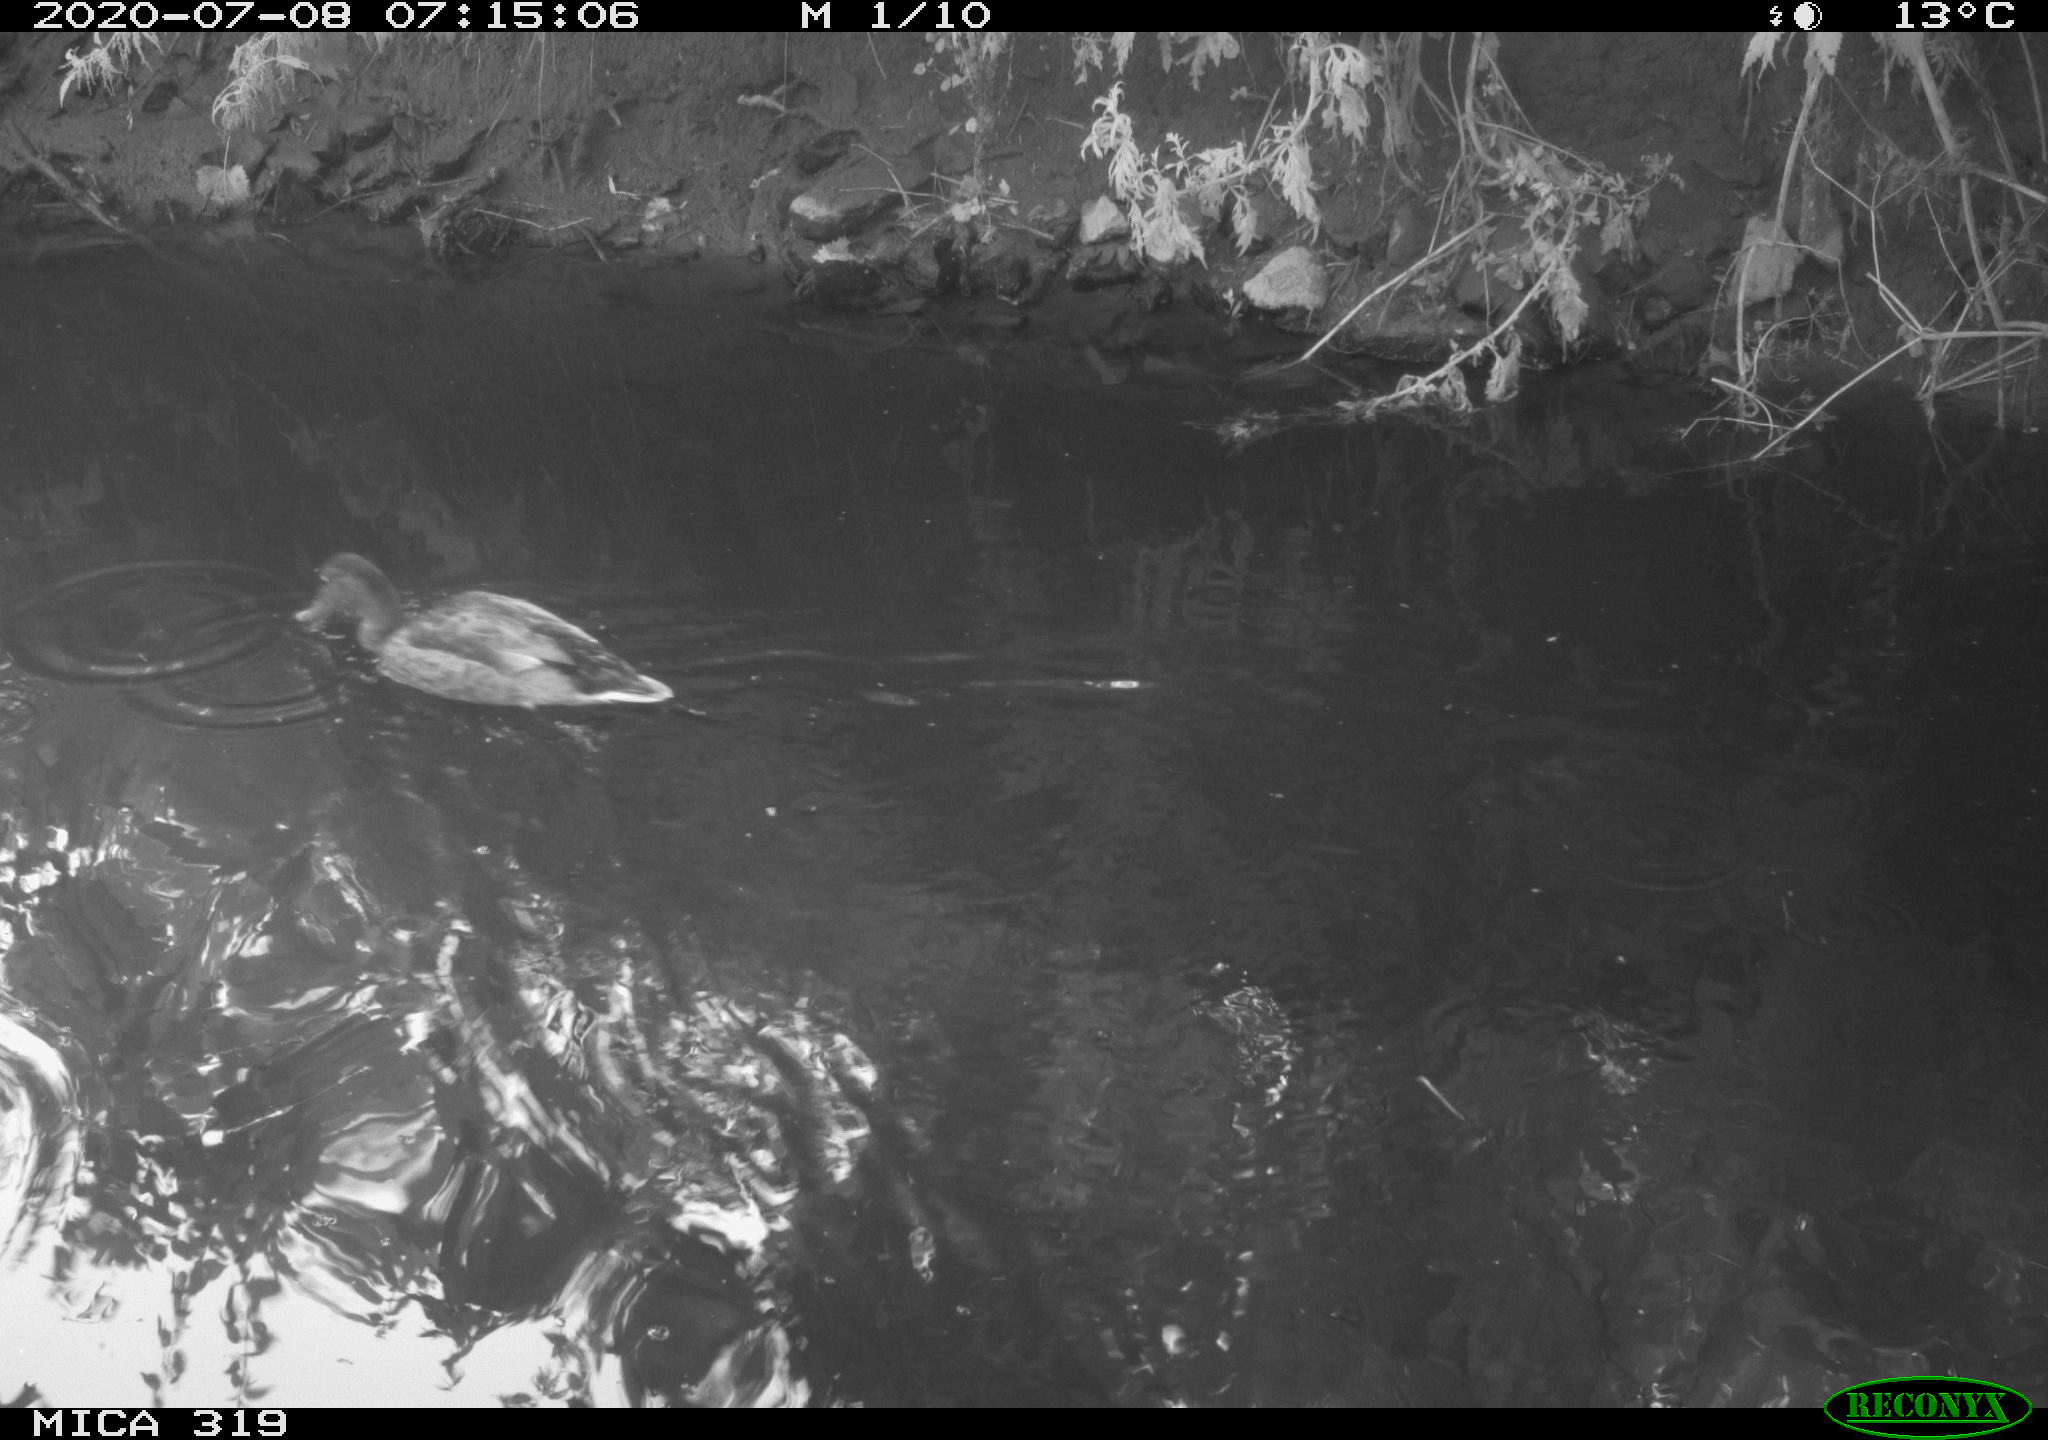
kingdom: Animalia
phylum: Chordata
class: Aves
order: Anseriformes
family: Anatidae
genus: Anas
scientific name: Anas platyrhynchos
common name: Mallard
